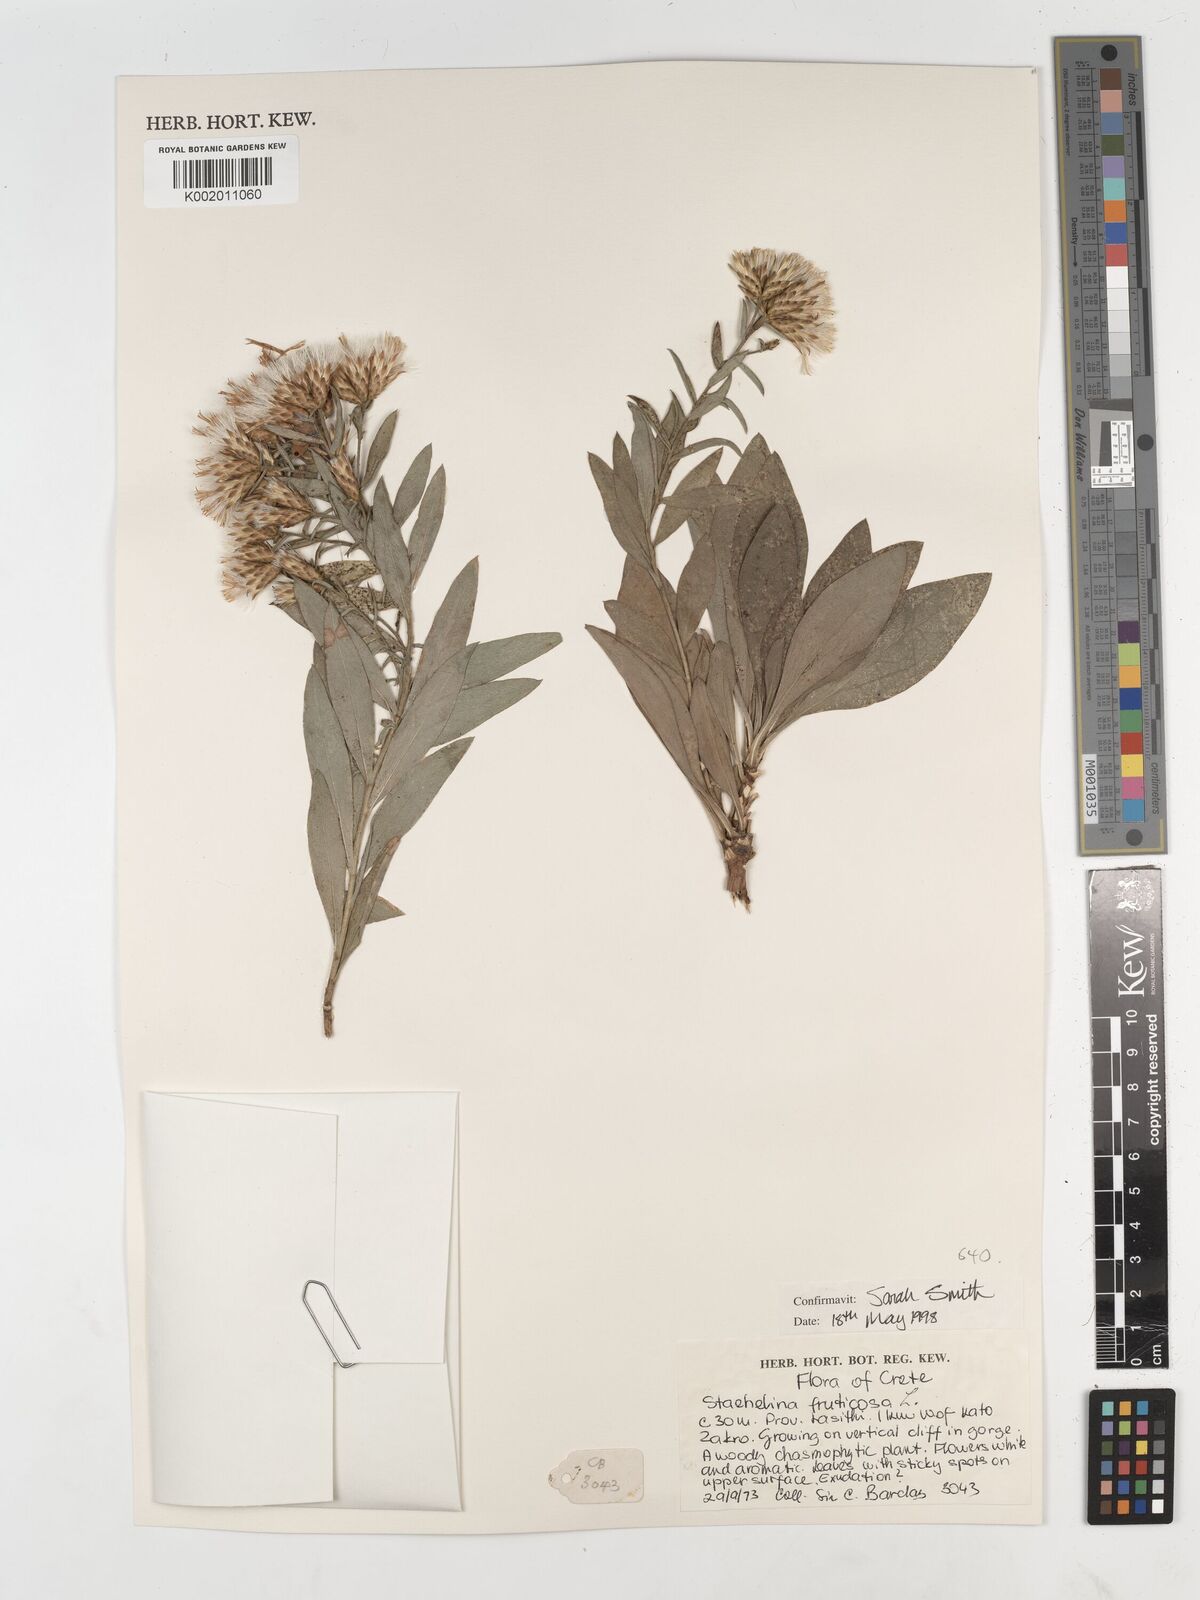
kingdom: Plantae
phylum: Tracheophyta
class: Magnoliopsida
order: Asterales
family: Asteraceae
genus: Hirtellina
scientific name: Hirtellina fruticosa
